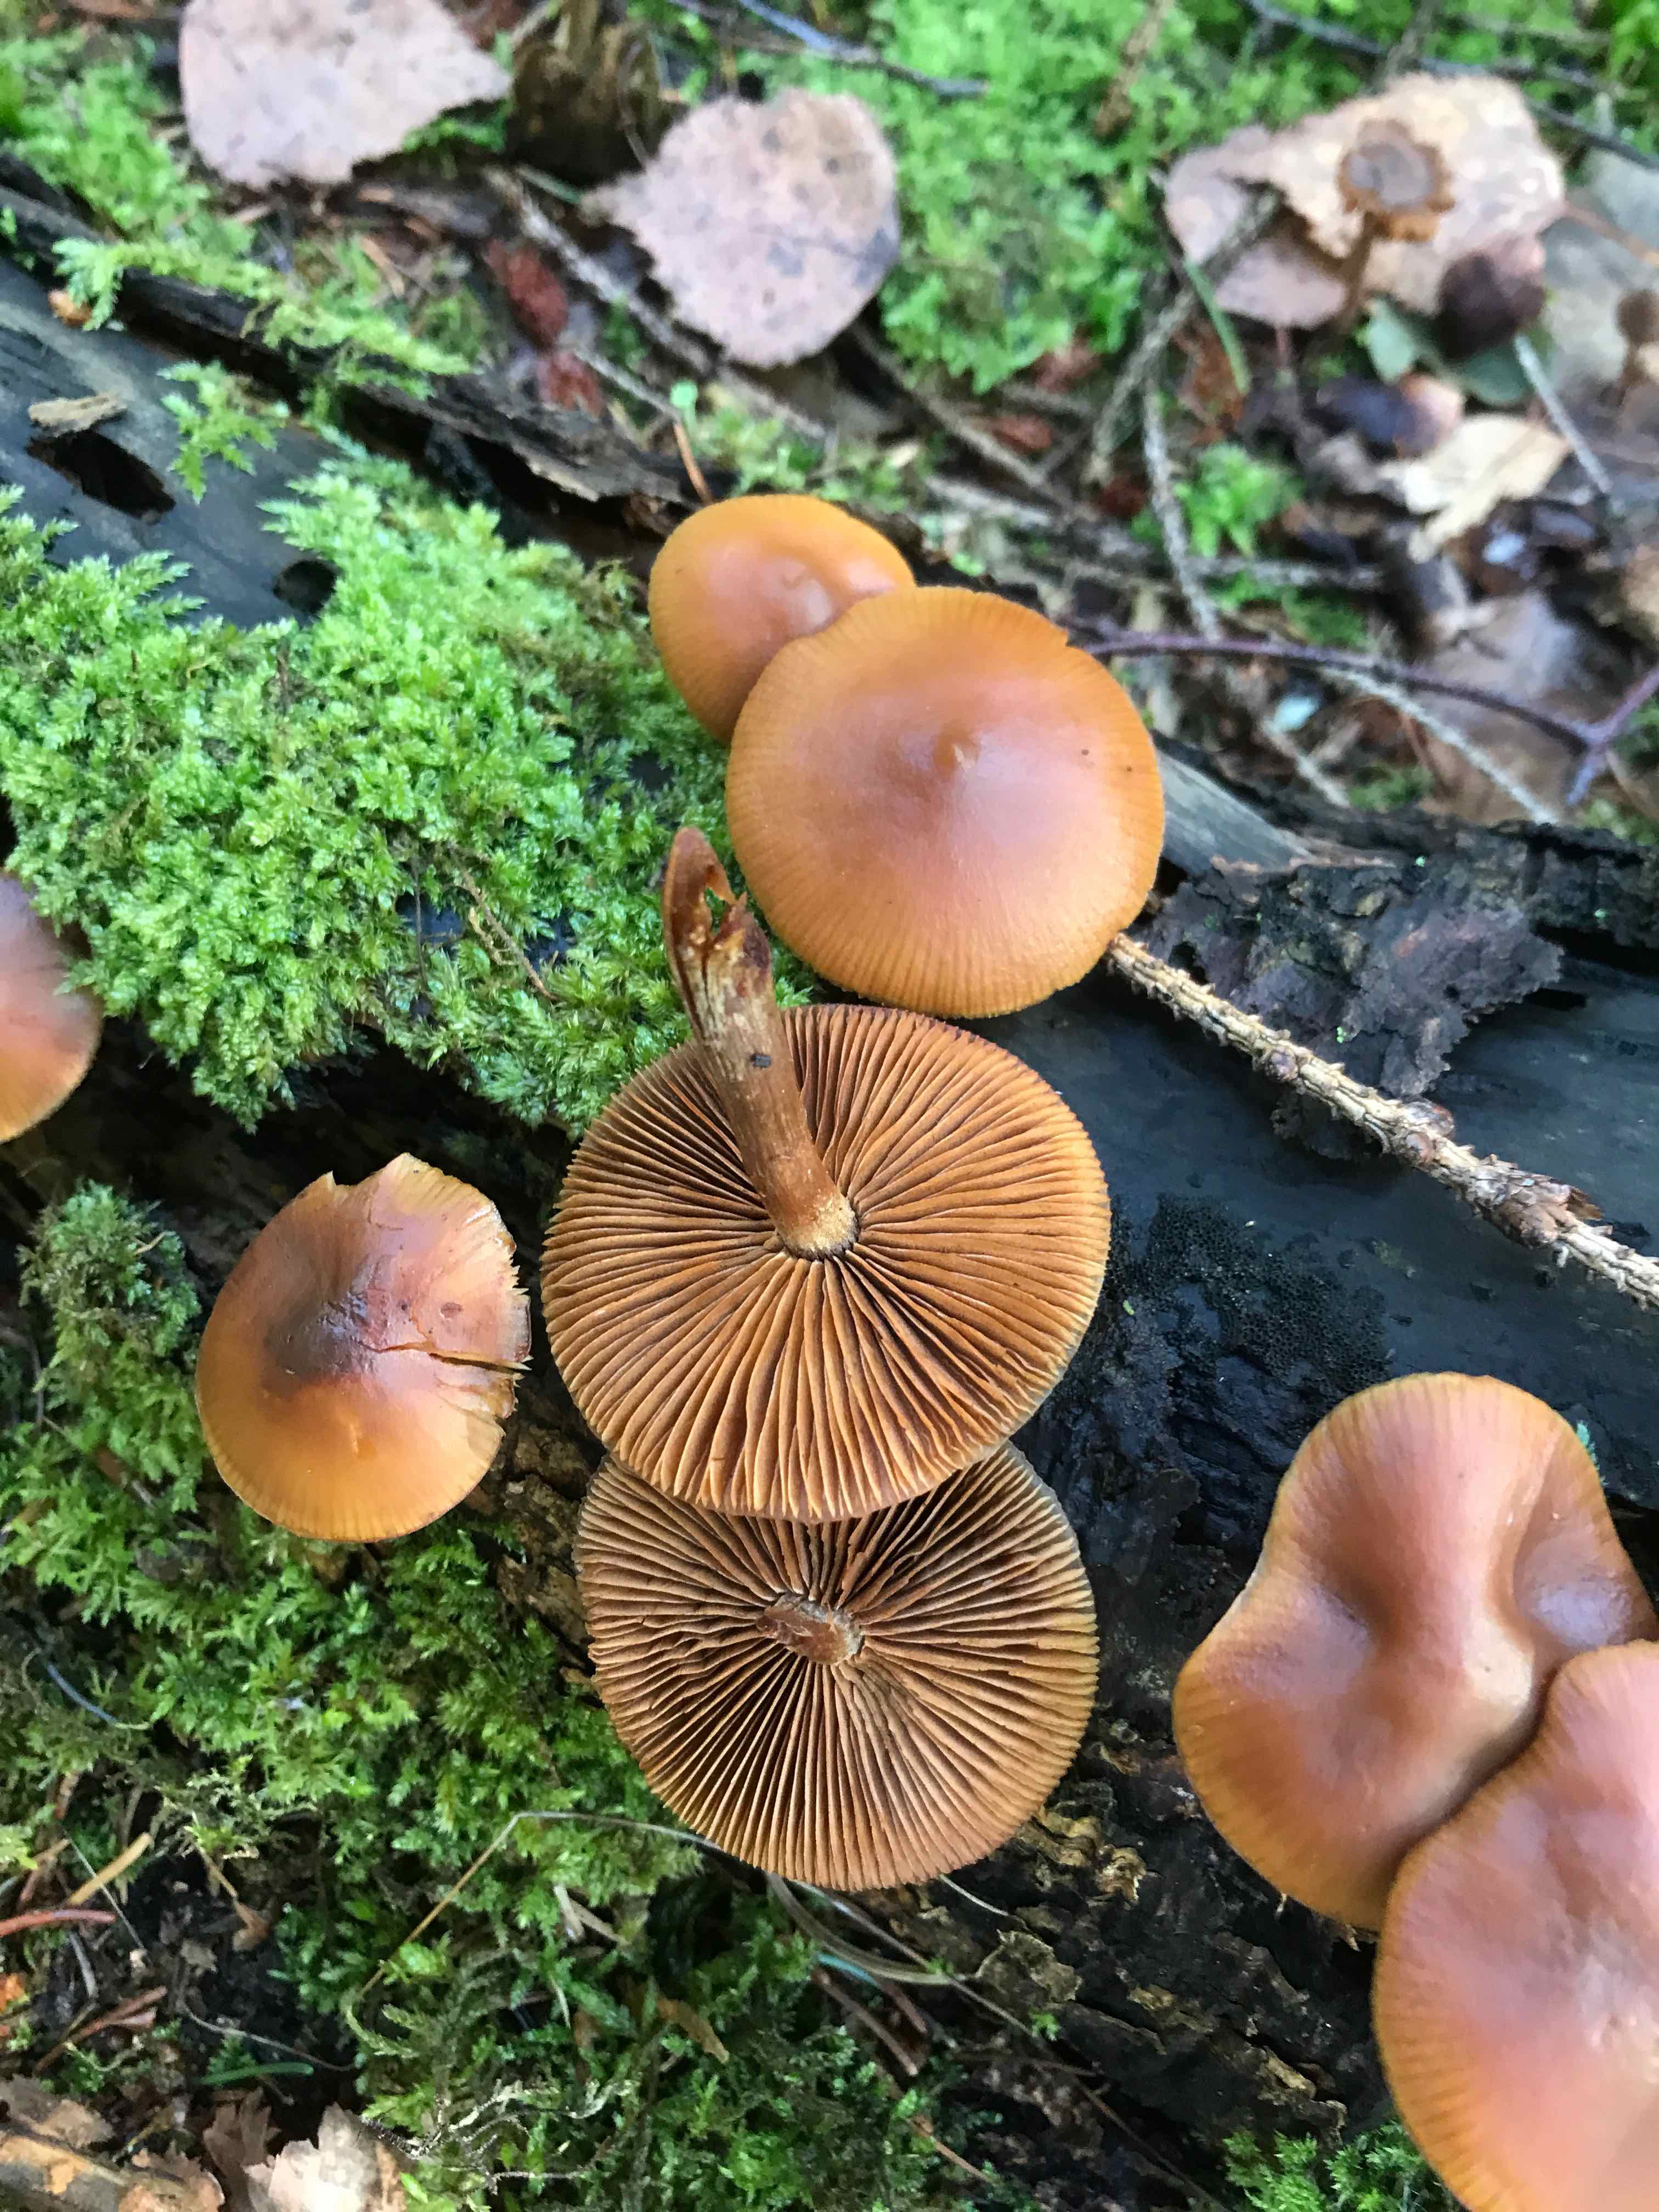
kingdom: Fungi
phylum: Basidiomycota
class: Agaricomycetes
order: Agaricales
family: Hymenogastraceae
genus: Galerina
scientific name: Galerina marginata
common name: randbæltet hjelmhat
